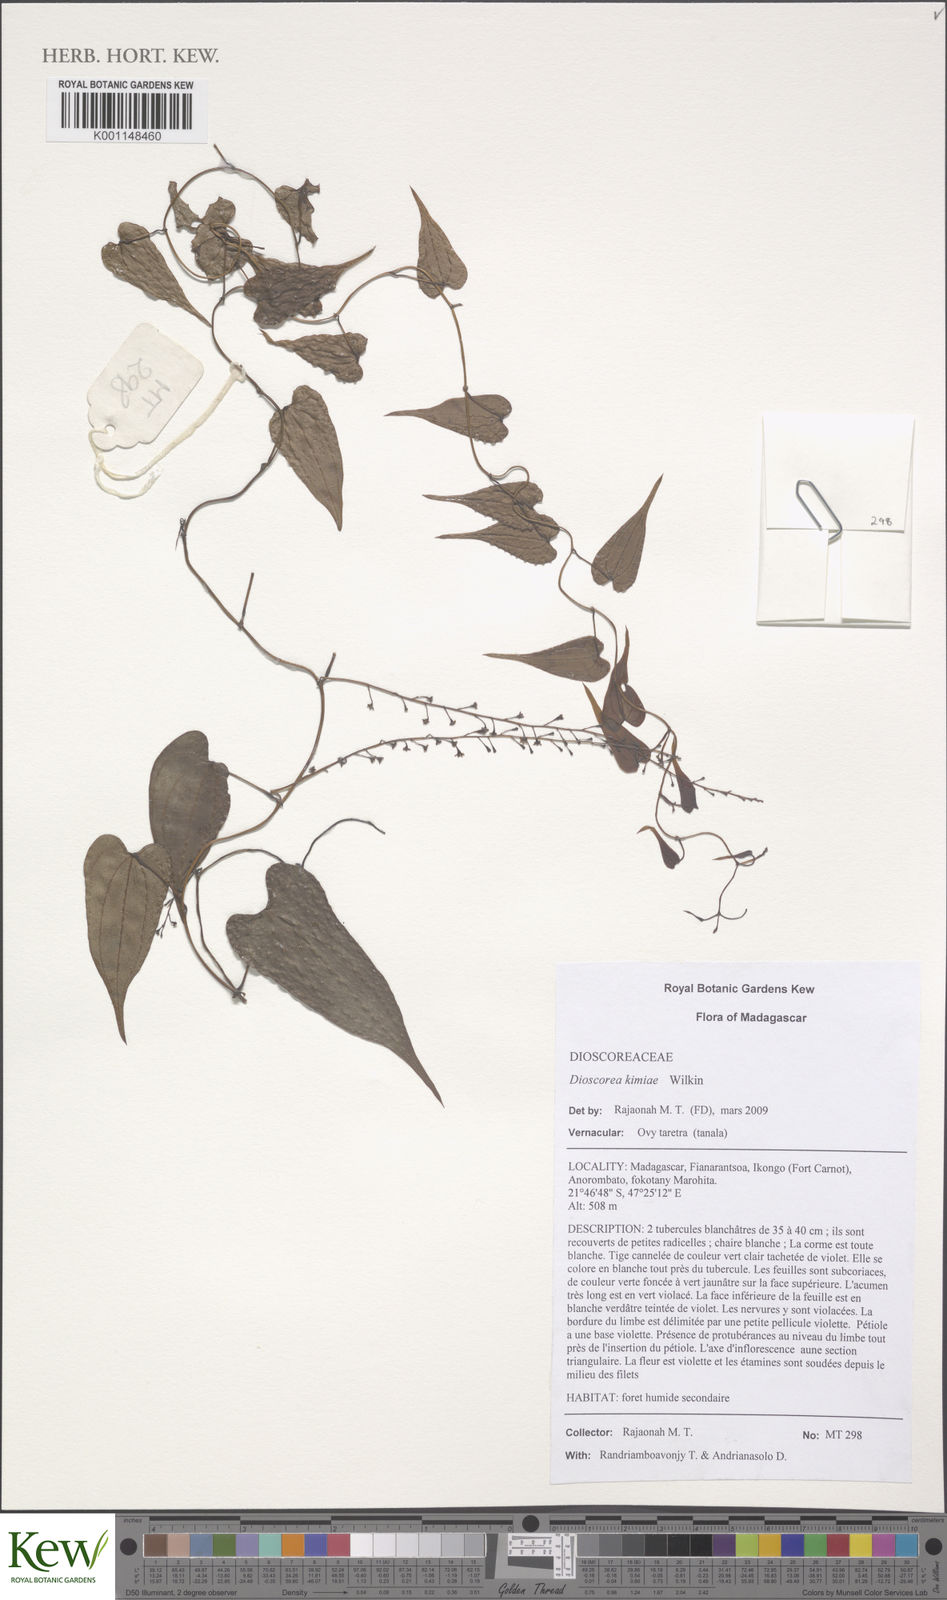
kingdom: Plantae
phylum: Tracheophyta
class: Liliopsida
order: Dioscoreales
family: Dioscoreaceae
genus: Dioscorea
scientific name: Dioscorea kimiae
